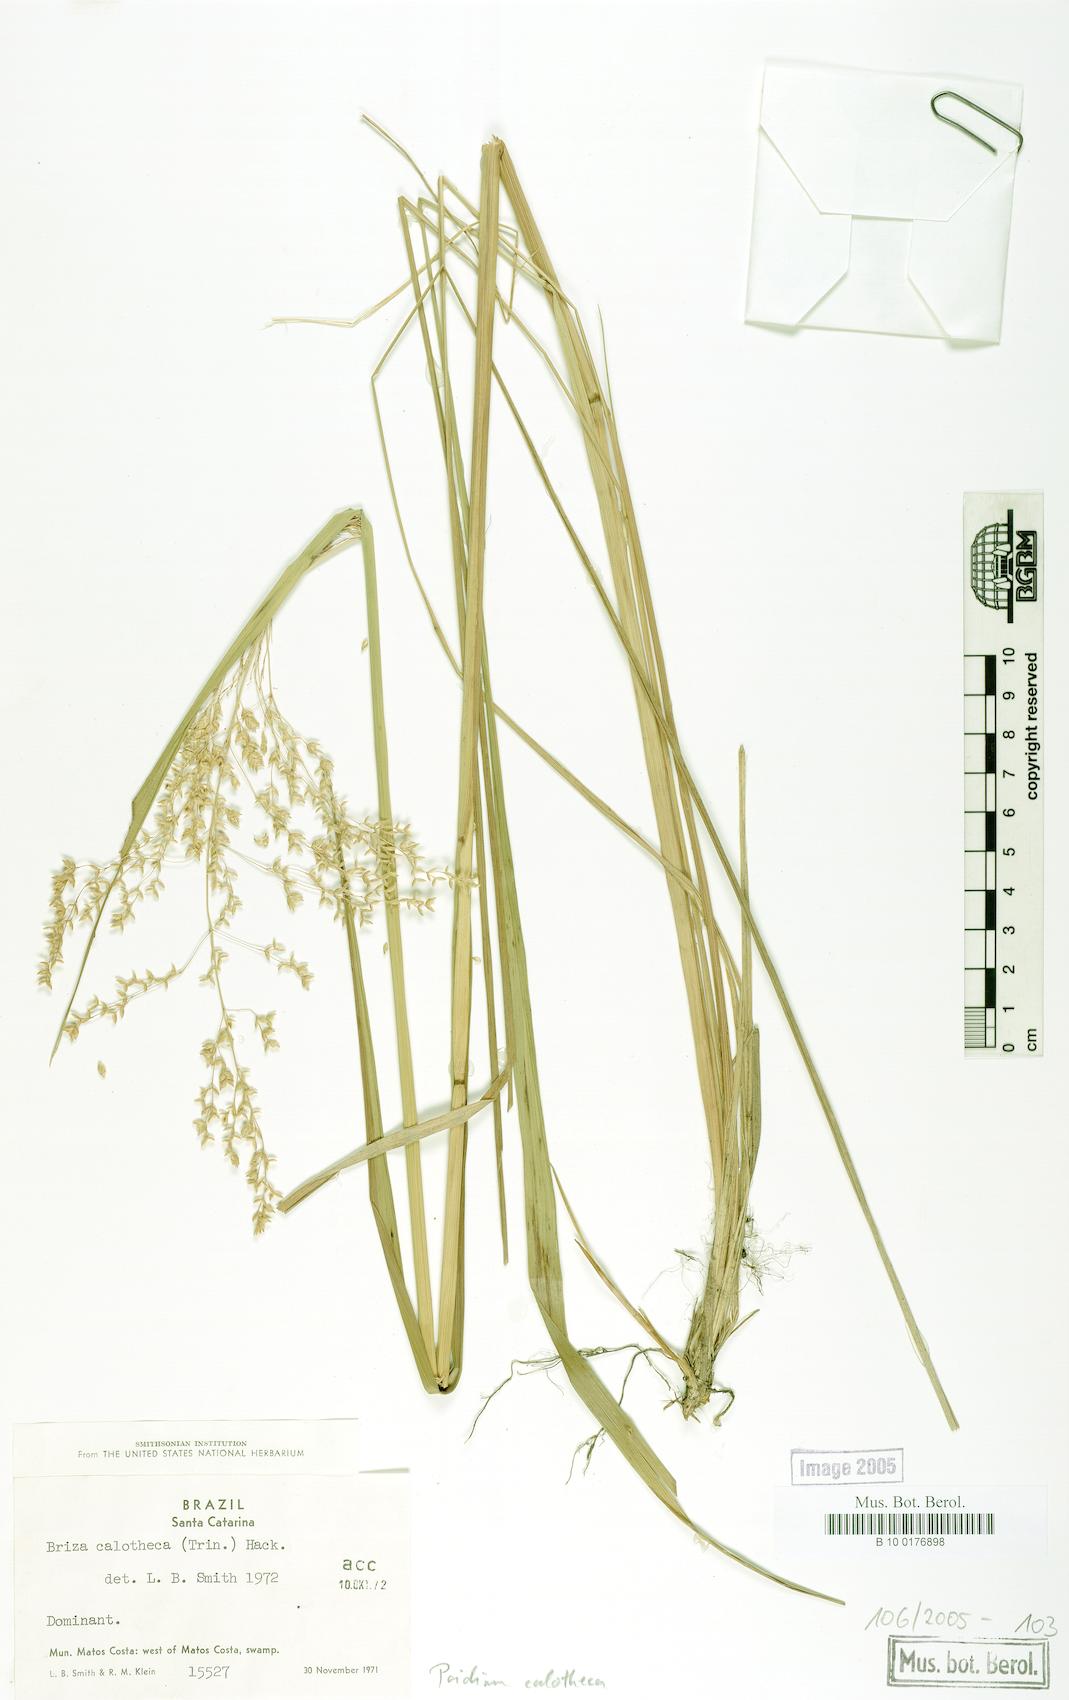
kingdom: Plantae
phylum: Tracheophyta
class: Liliopsida
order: Poales
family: Poaceae
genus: Poidium
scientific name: Poidium calotheca
